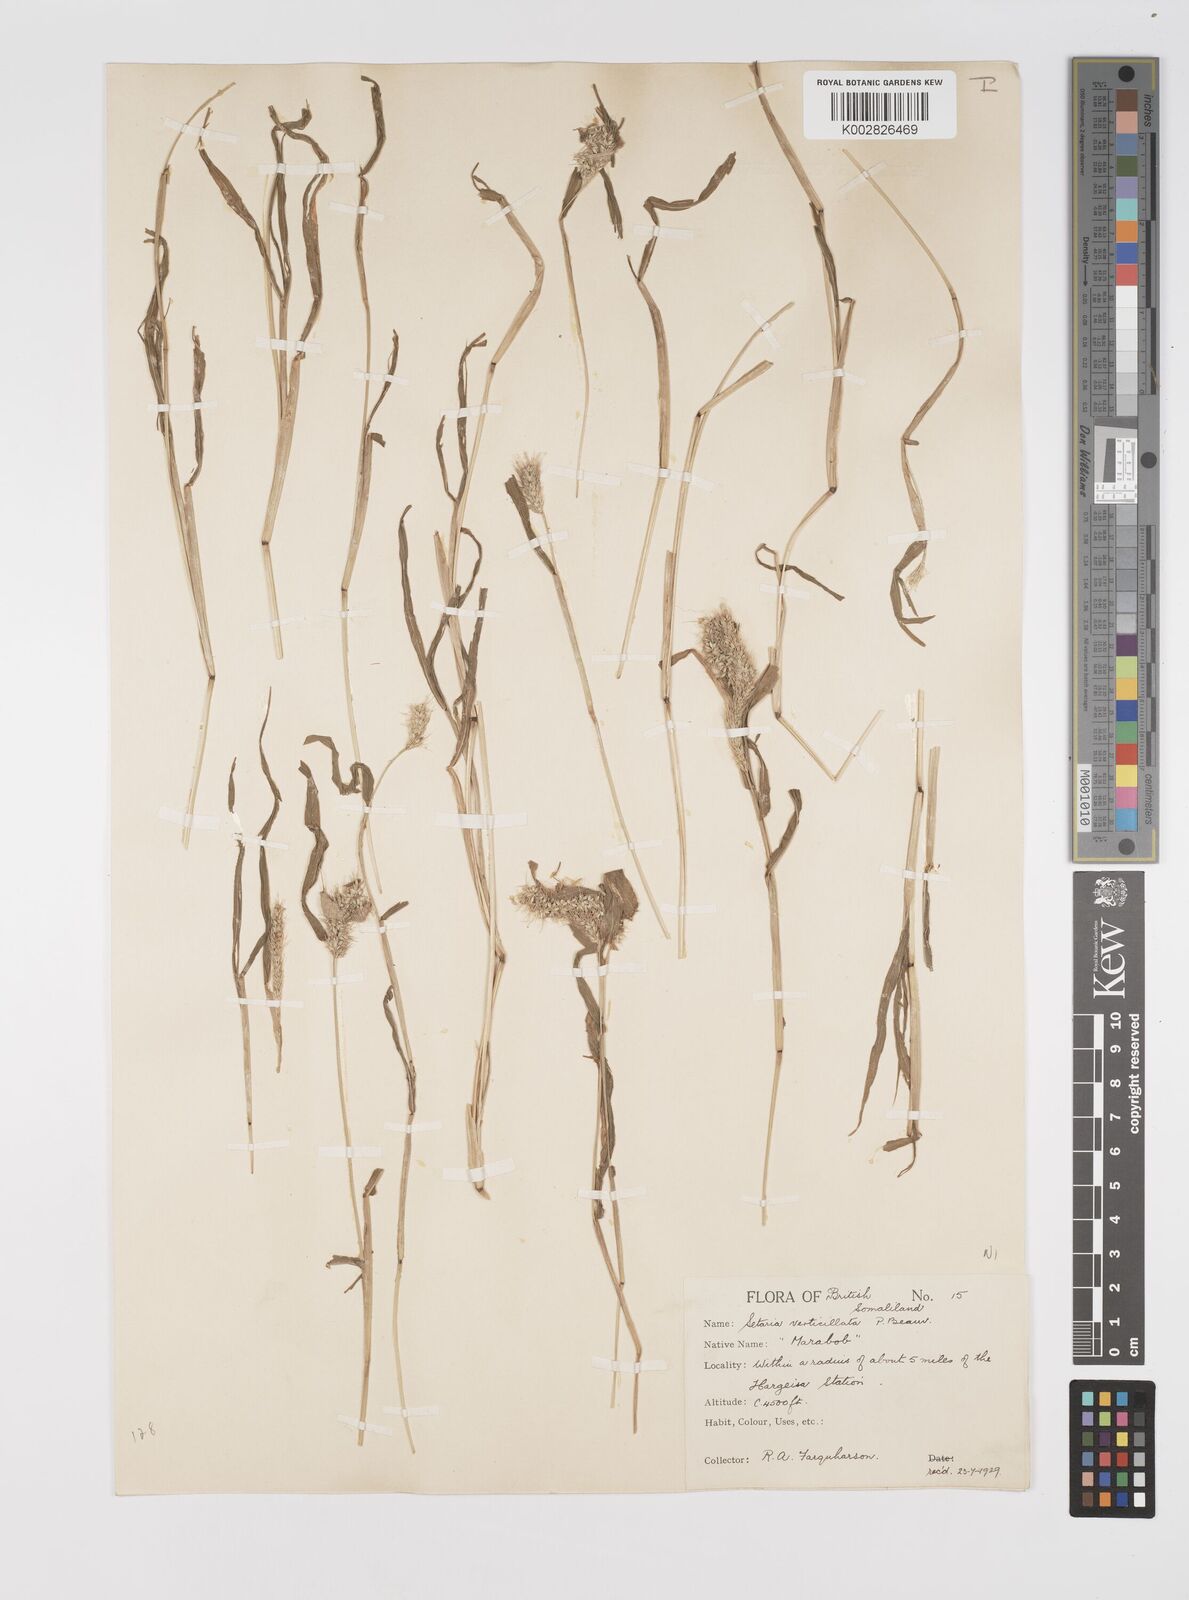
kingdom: Plantae
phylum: Tracheophyta
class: Liliopsida
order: Poales
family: Poaceae
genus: Setaria
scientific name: Setaria verticillata
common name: Hooked bristlegrass
